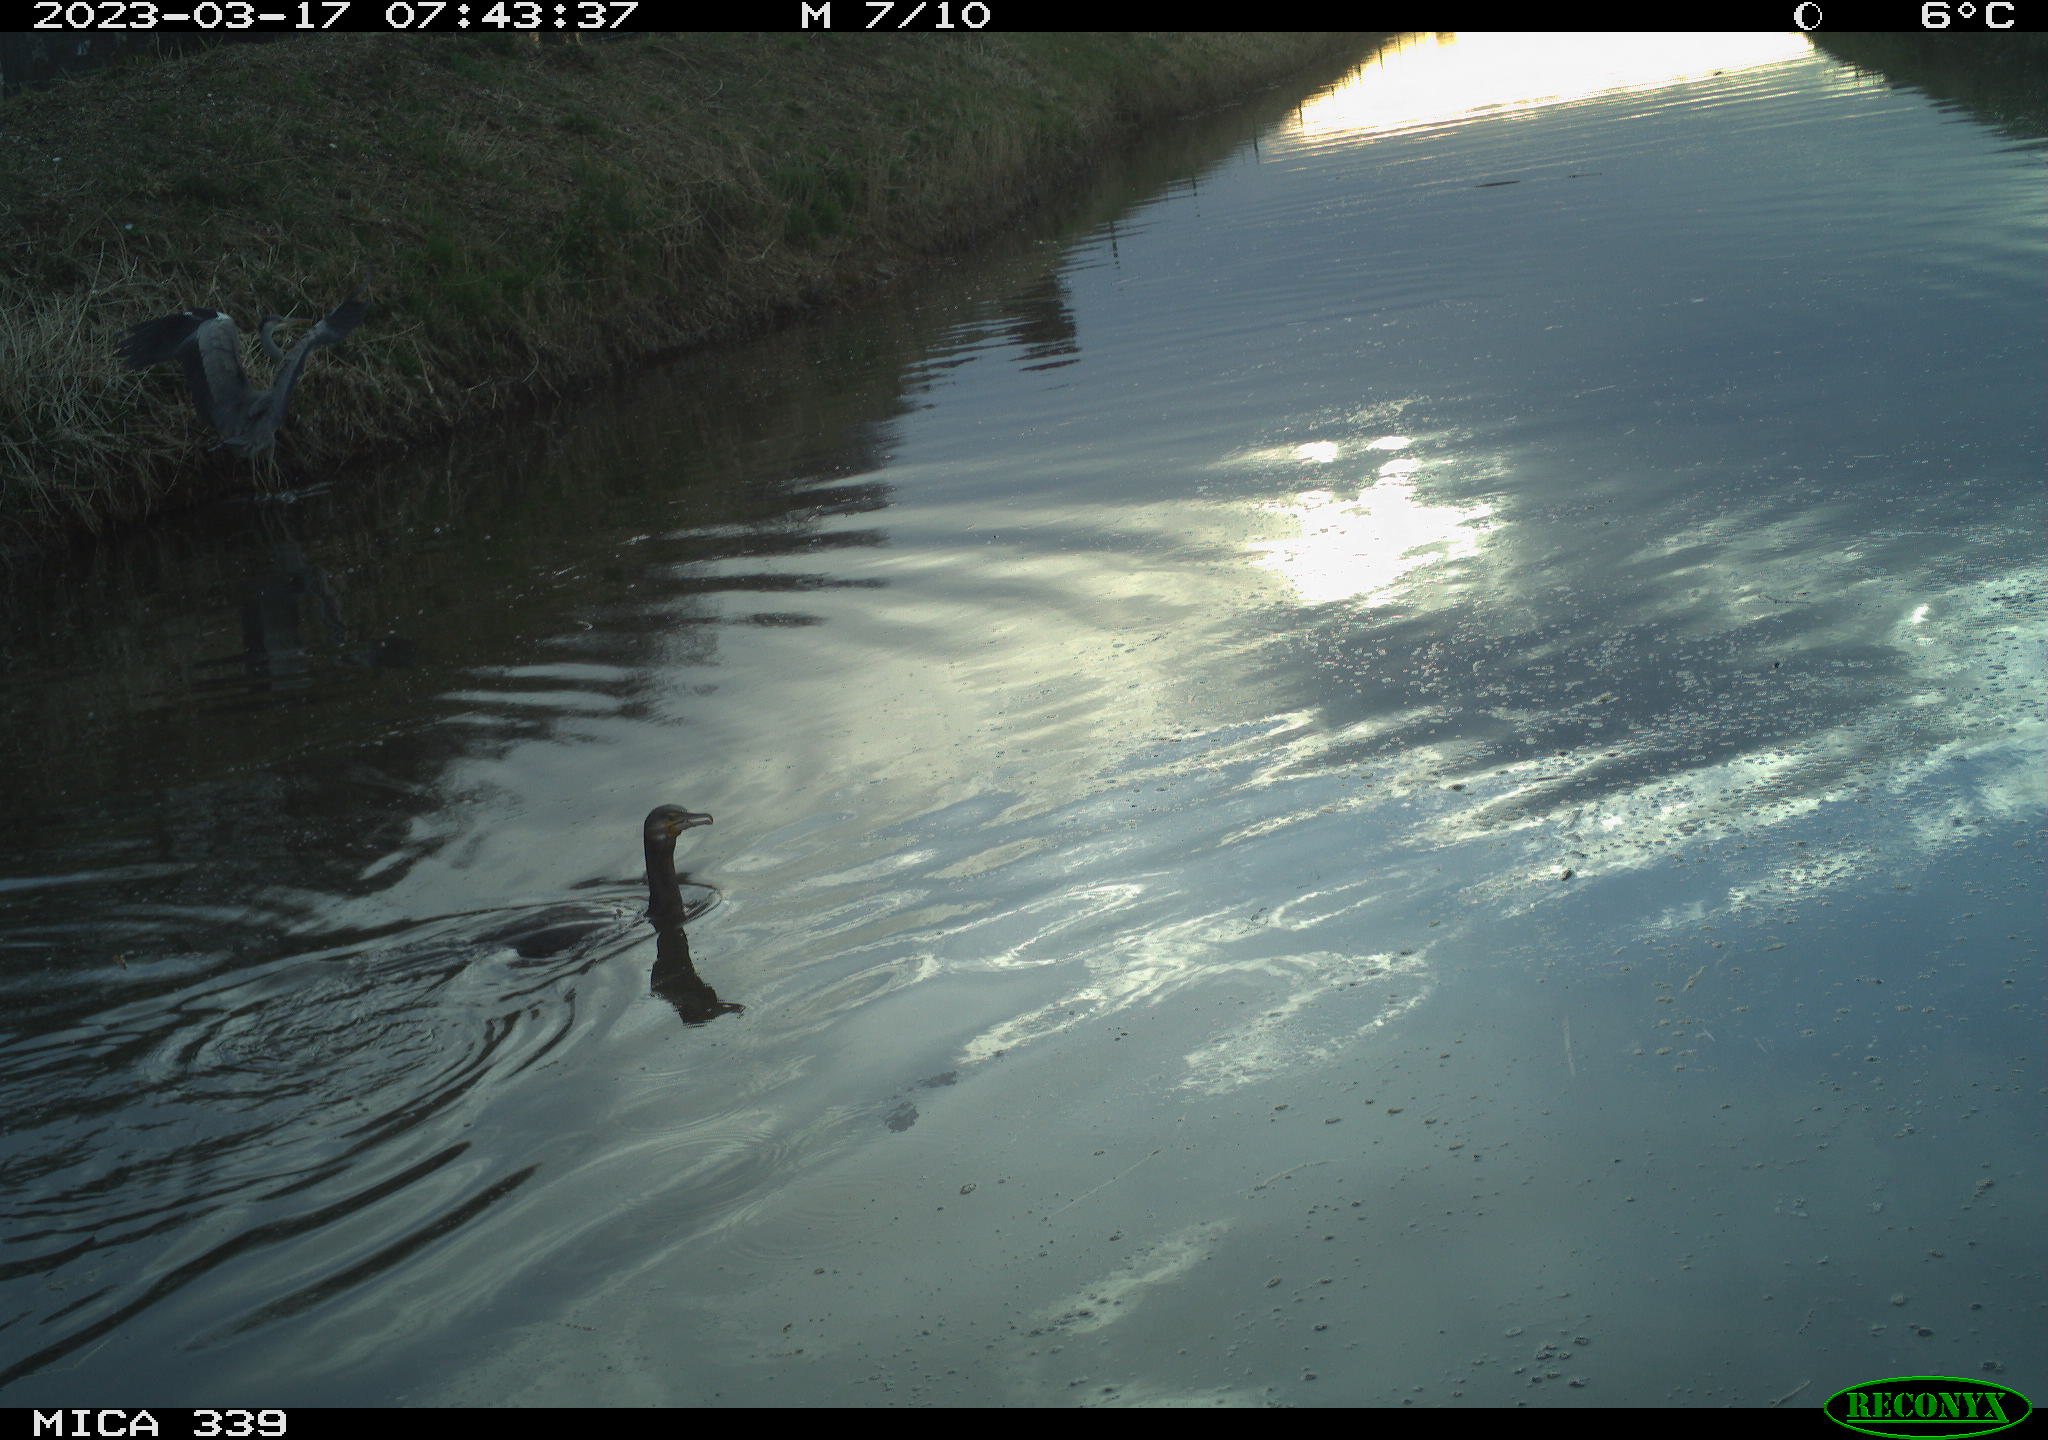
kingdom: Animalia
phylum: Chordata
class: Aves
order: Pelecaniformes
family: Ardeidae
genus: Ardea
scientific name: Ardea
